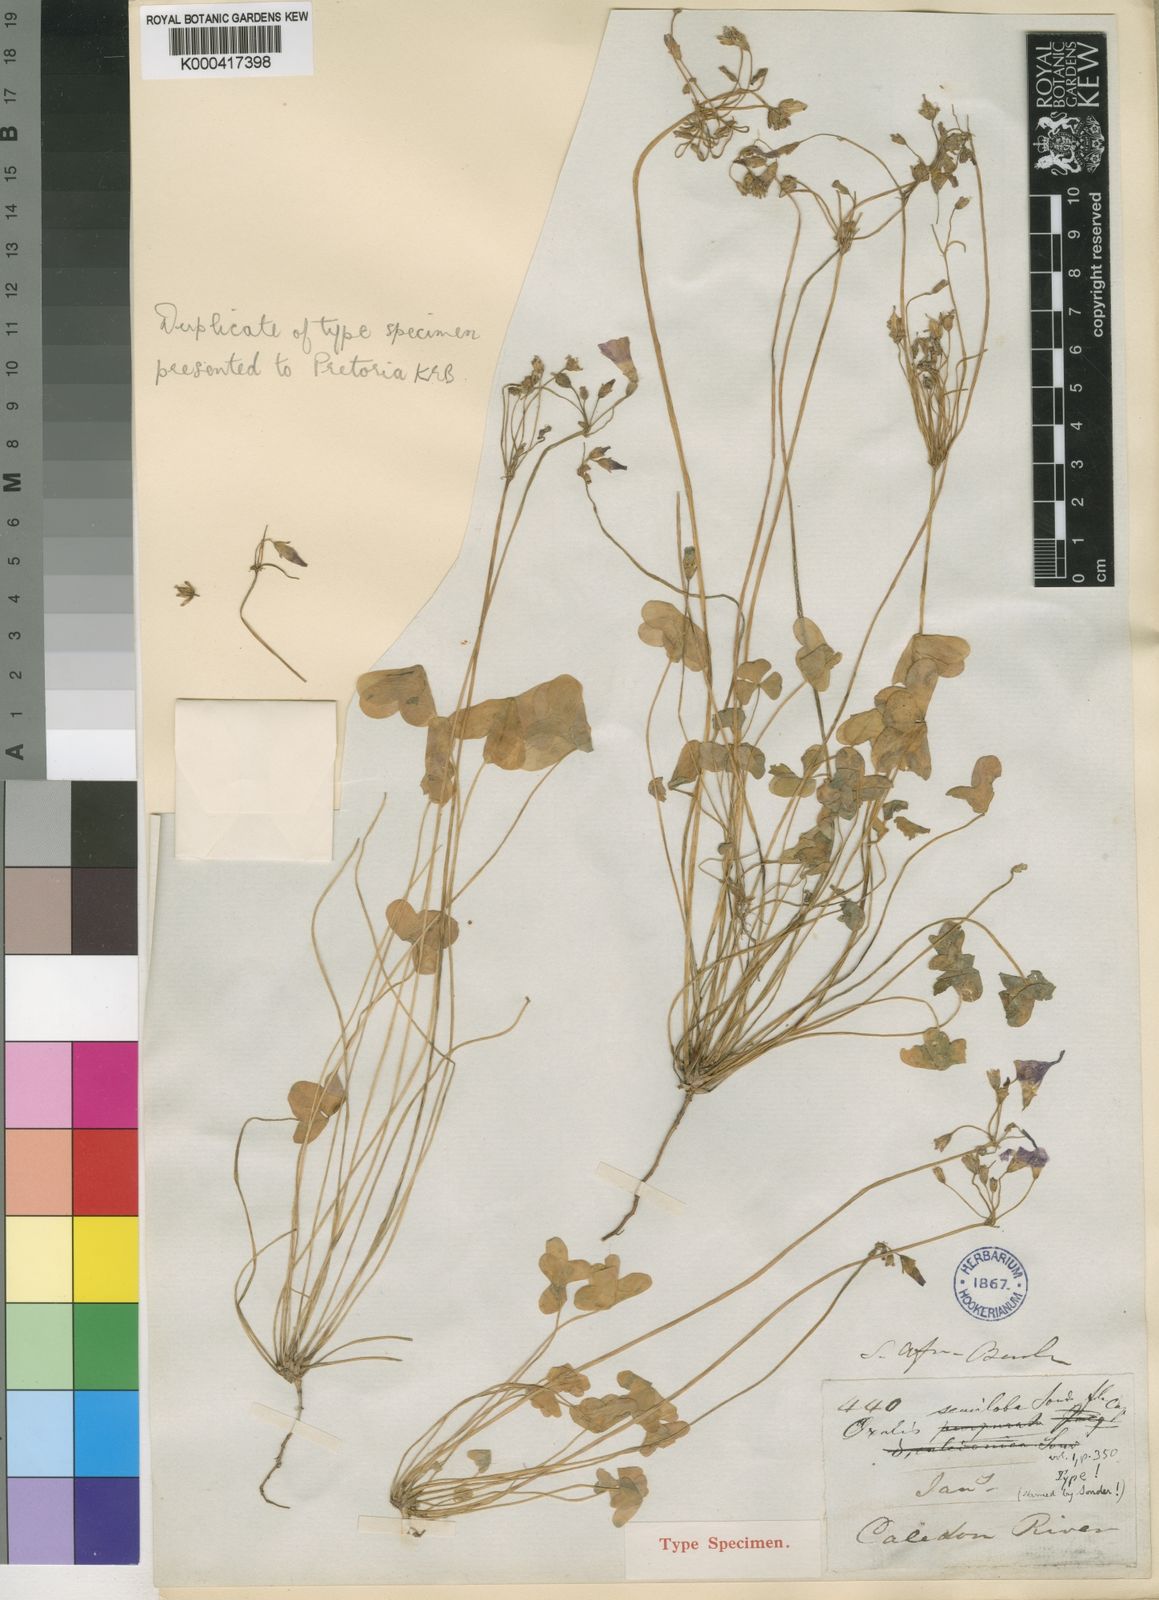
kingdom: Plantae
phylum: Tracheophyta
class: Magnoliopsida
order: Oxalidales
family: Oxalidaceae
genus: Oxalis
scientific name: Oxalis semiloba
